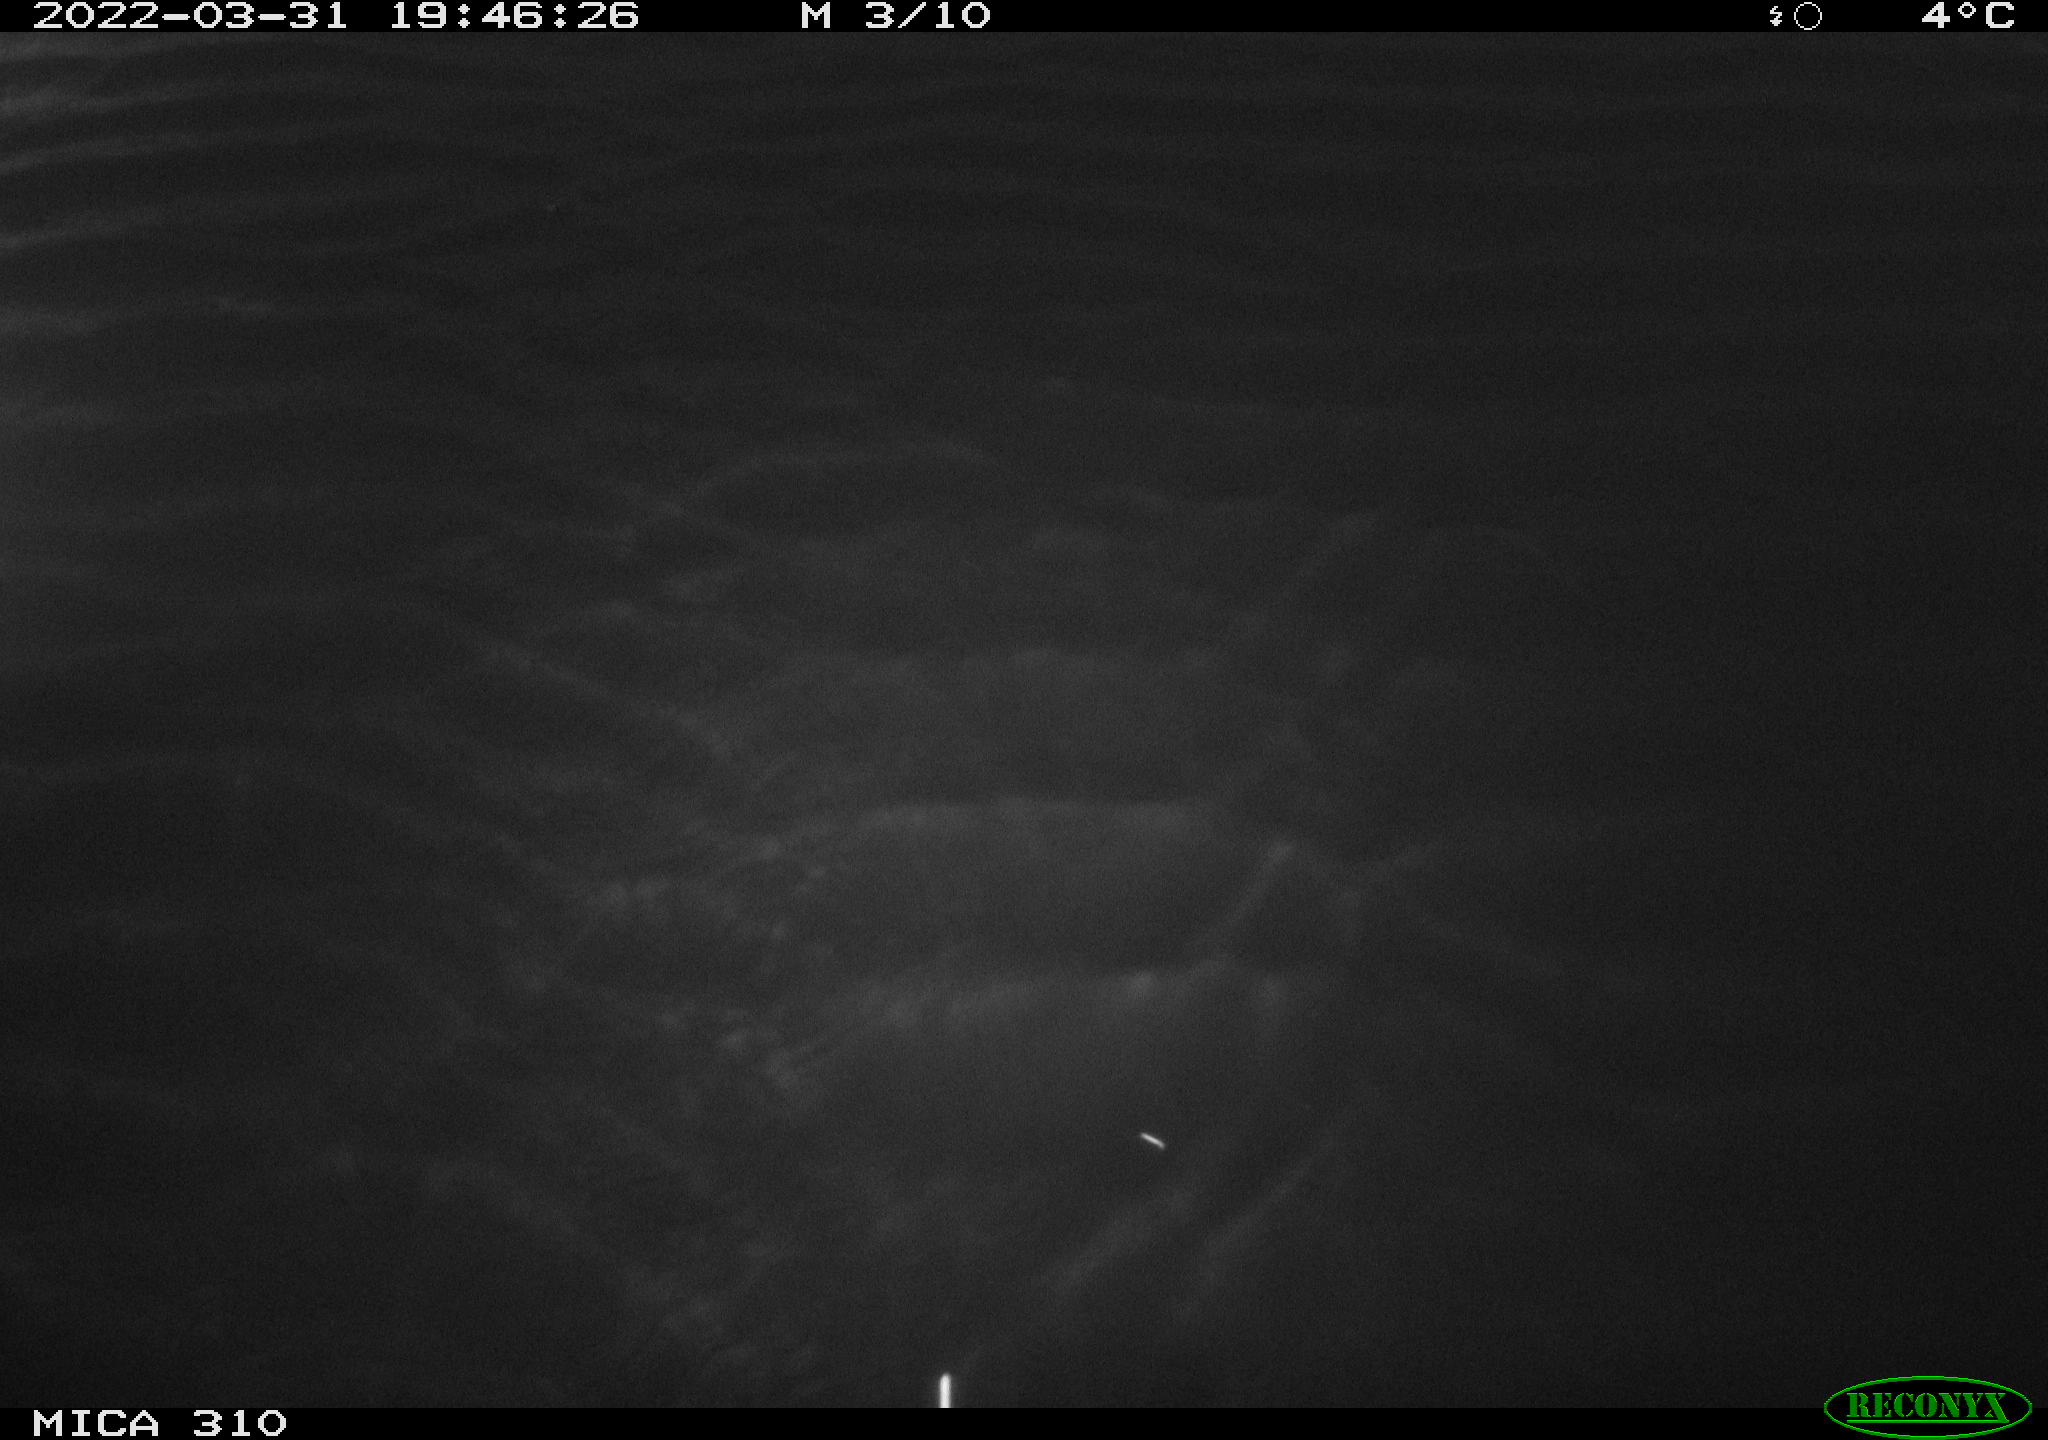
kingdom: Animalia
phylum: Chordata
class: Aves
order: Anseriformes
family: Anatidae
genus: Anas
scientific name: Anas platyrhynchos
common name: Mallard
